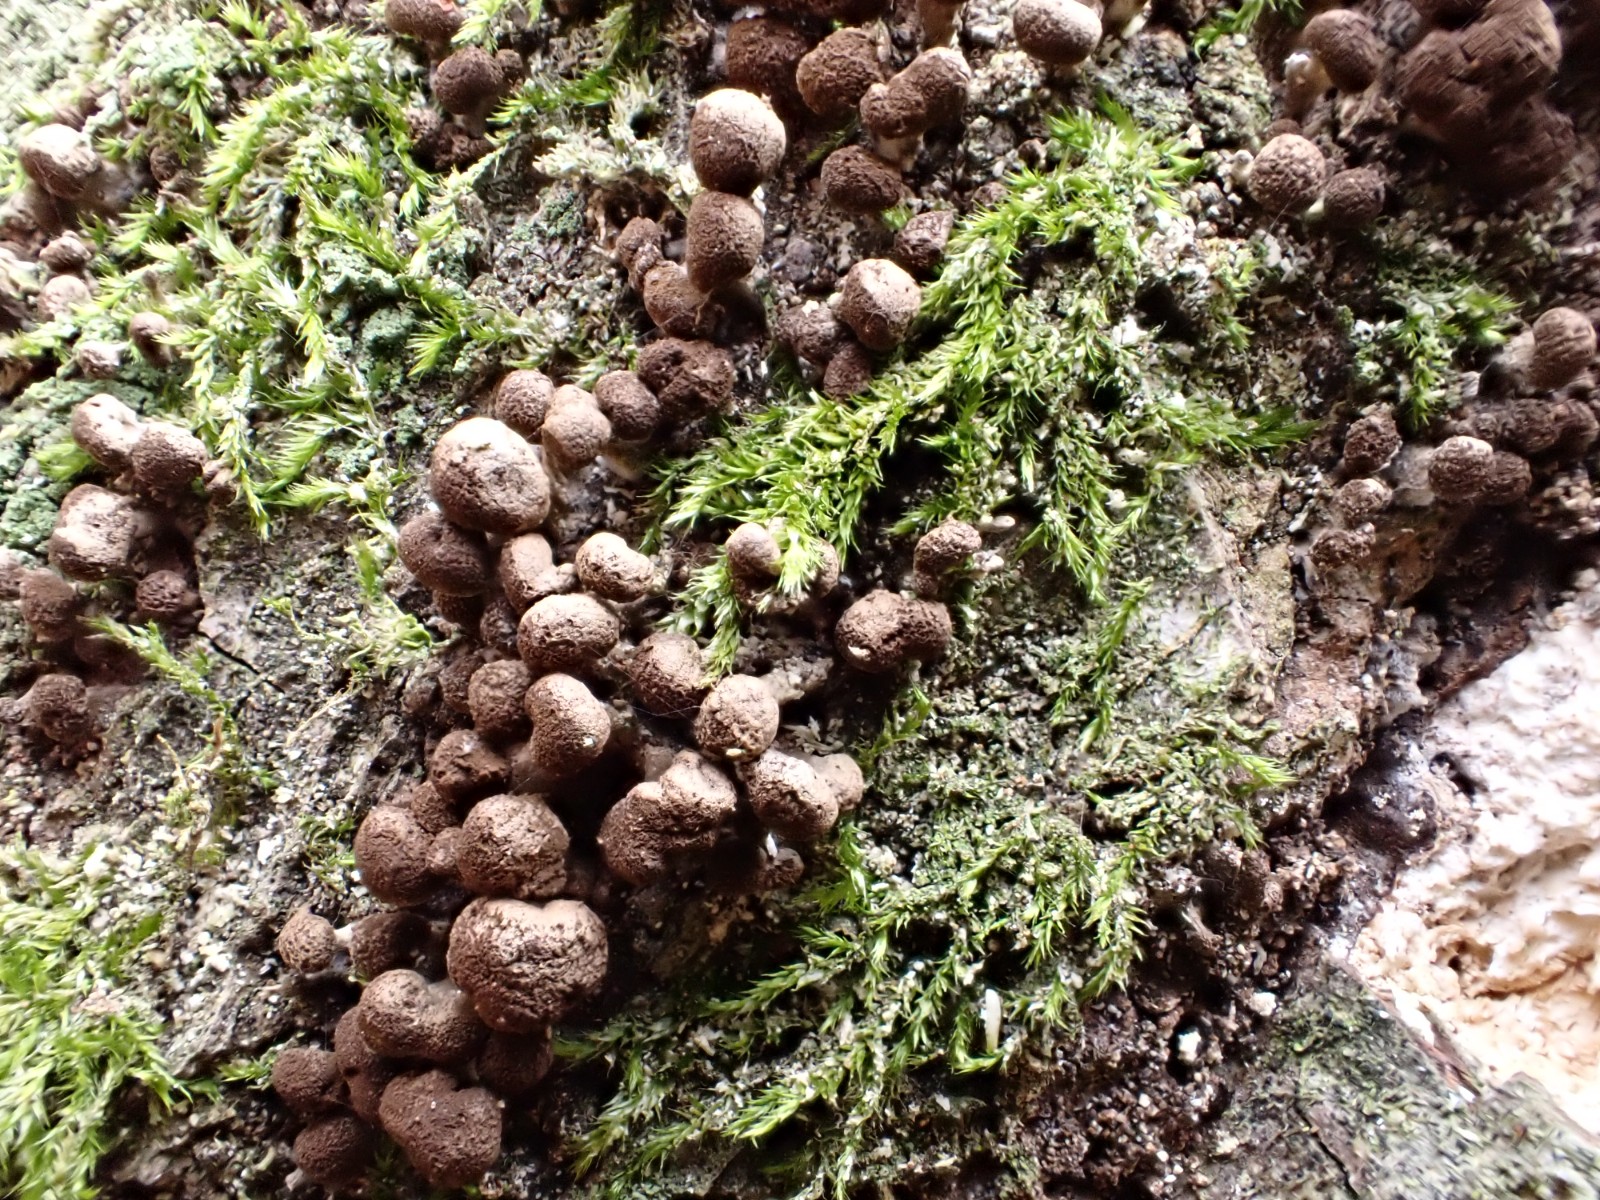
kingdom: Fungi
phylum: Basidiomycota
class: Atractiellomycetes
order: Atractiellales
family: Phleogenaceae
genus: Phleogena
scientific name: Phleogena faginea
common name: pudderkølle
